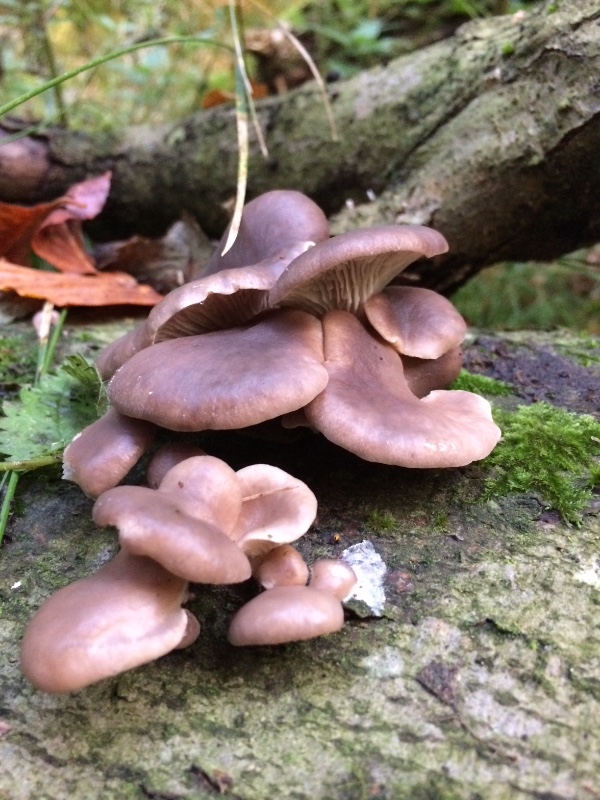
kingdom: Fungi
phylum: Basidiomycota
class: Agaricomycetes
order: Agaricales
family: Pleurotaceae
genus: Pleurotus
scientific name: Pleurotus ostreatus
